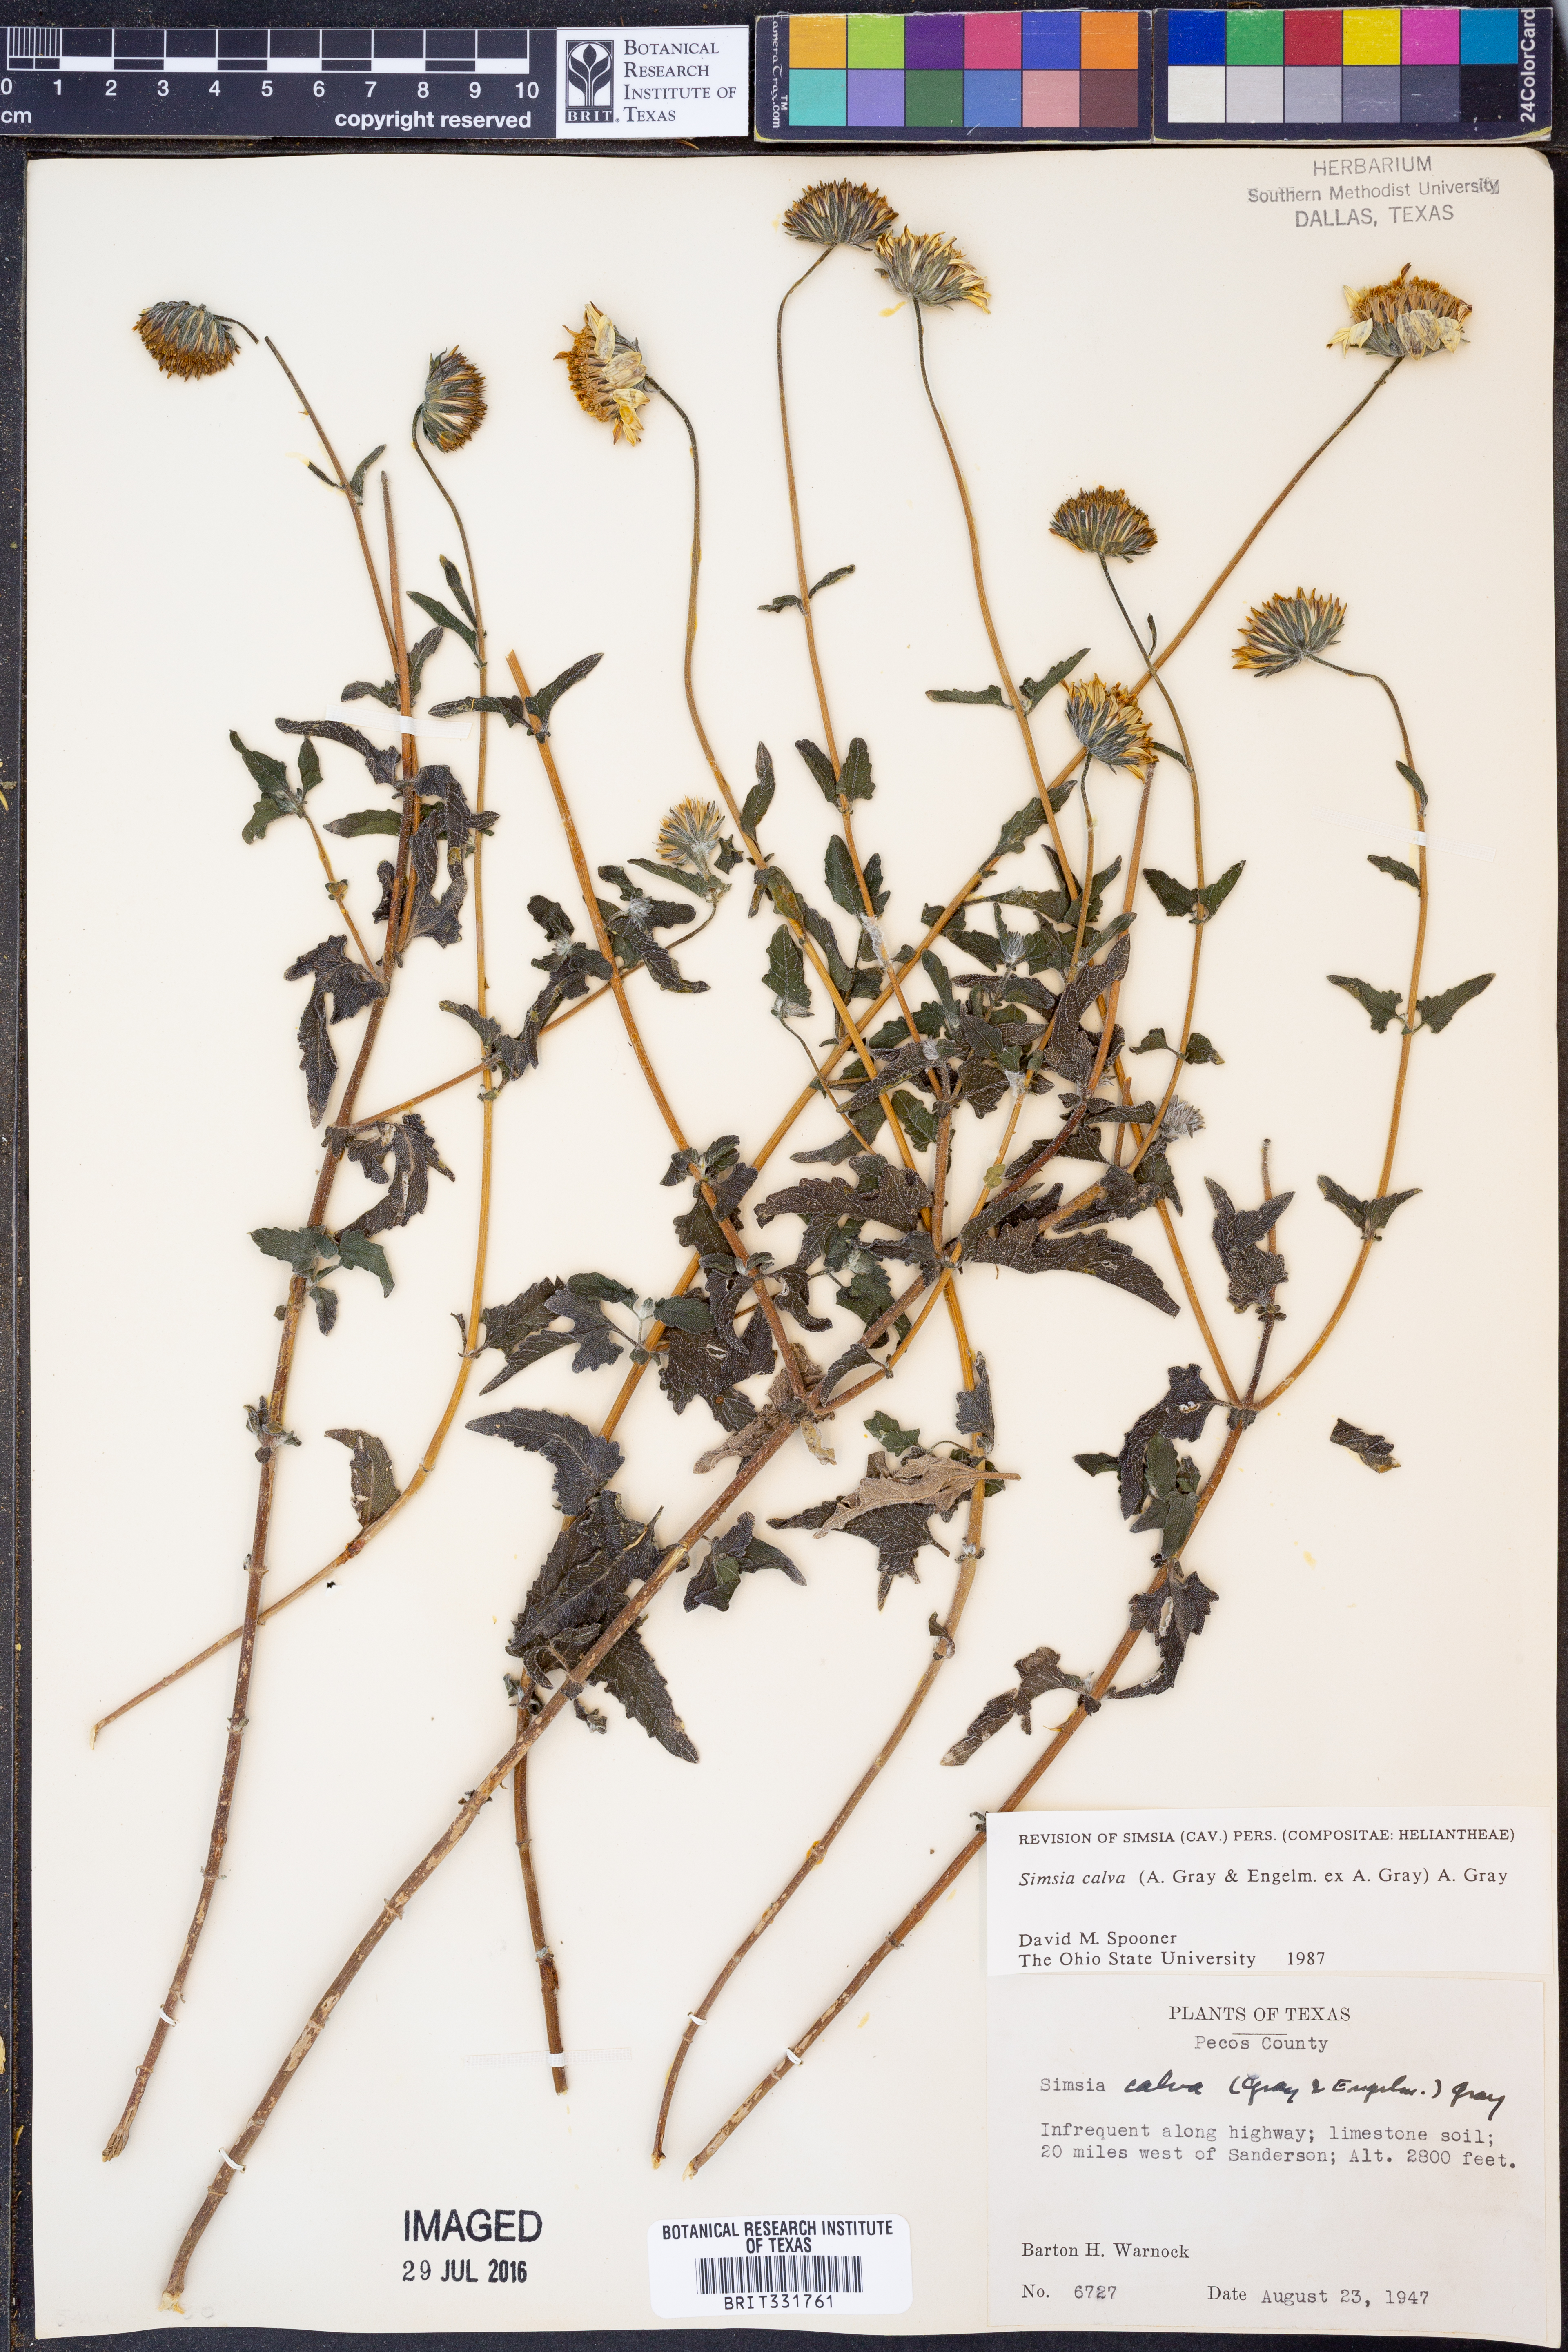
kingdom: Plantae
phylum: Tracheophyta
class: Magnoliopsida
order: Asterales
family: Asteraceae
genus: Simsia
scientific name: Simsia calva
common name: Awnless bush-sunflower
